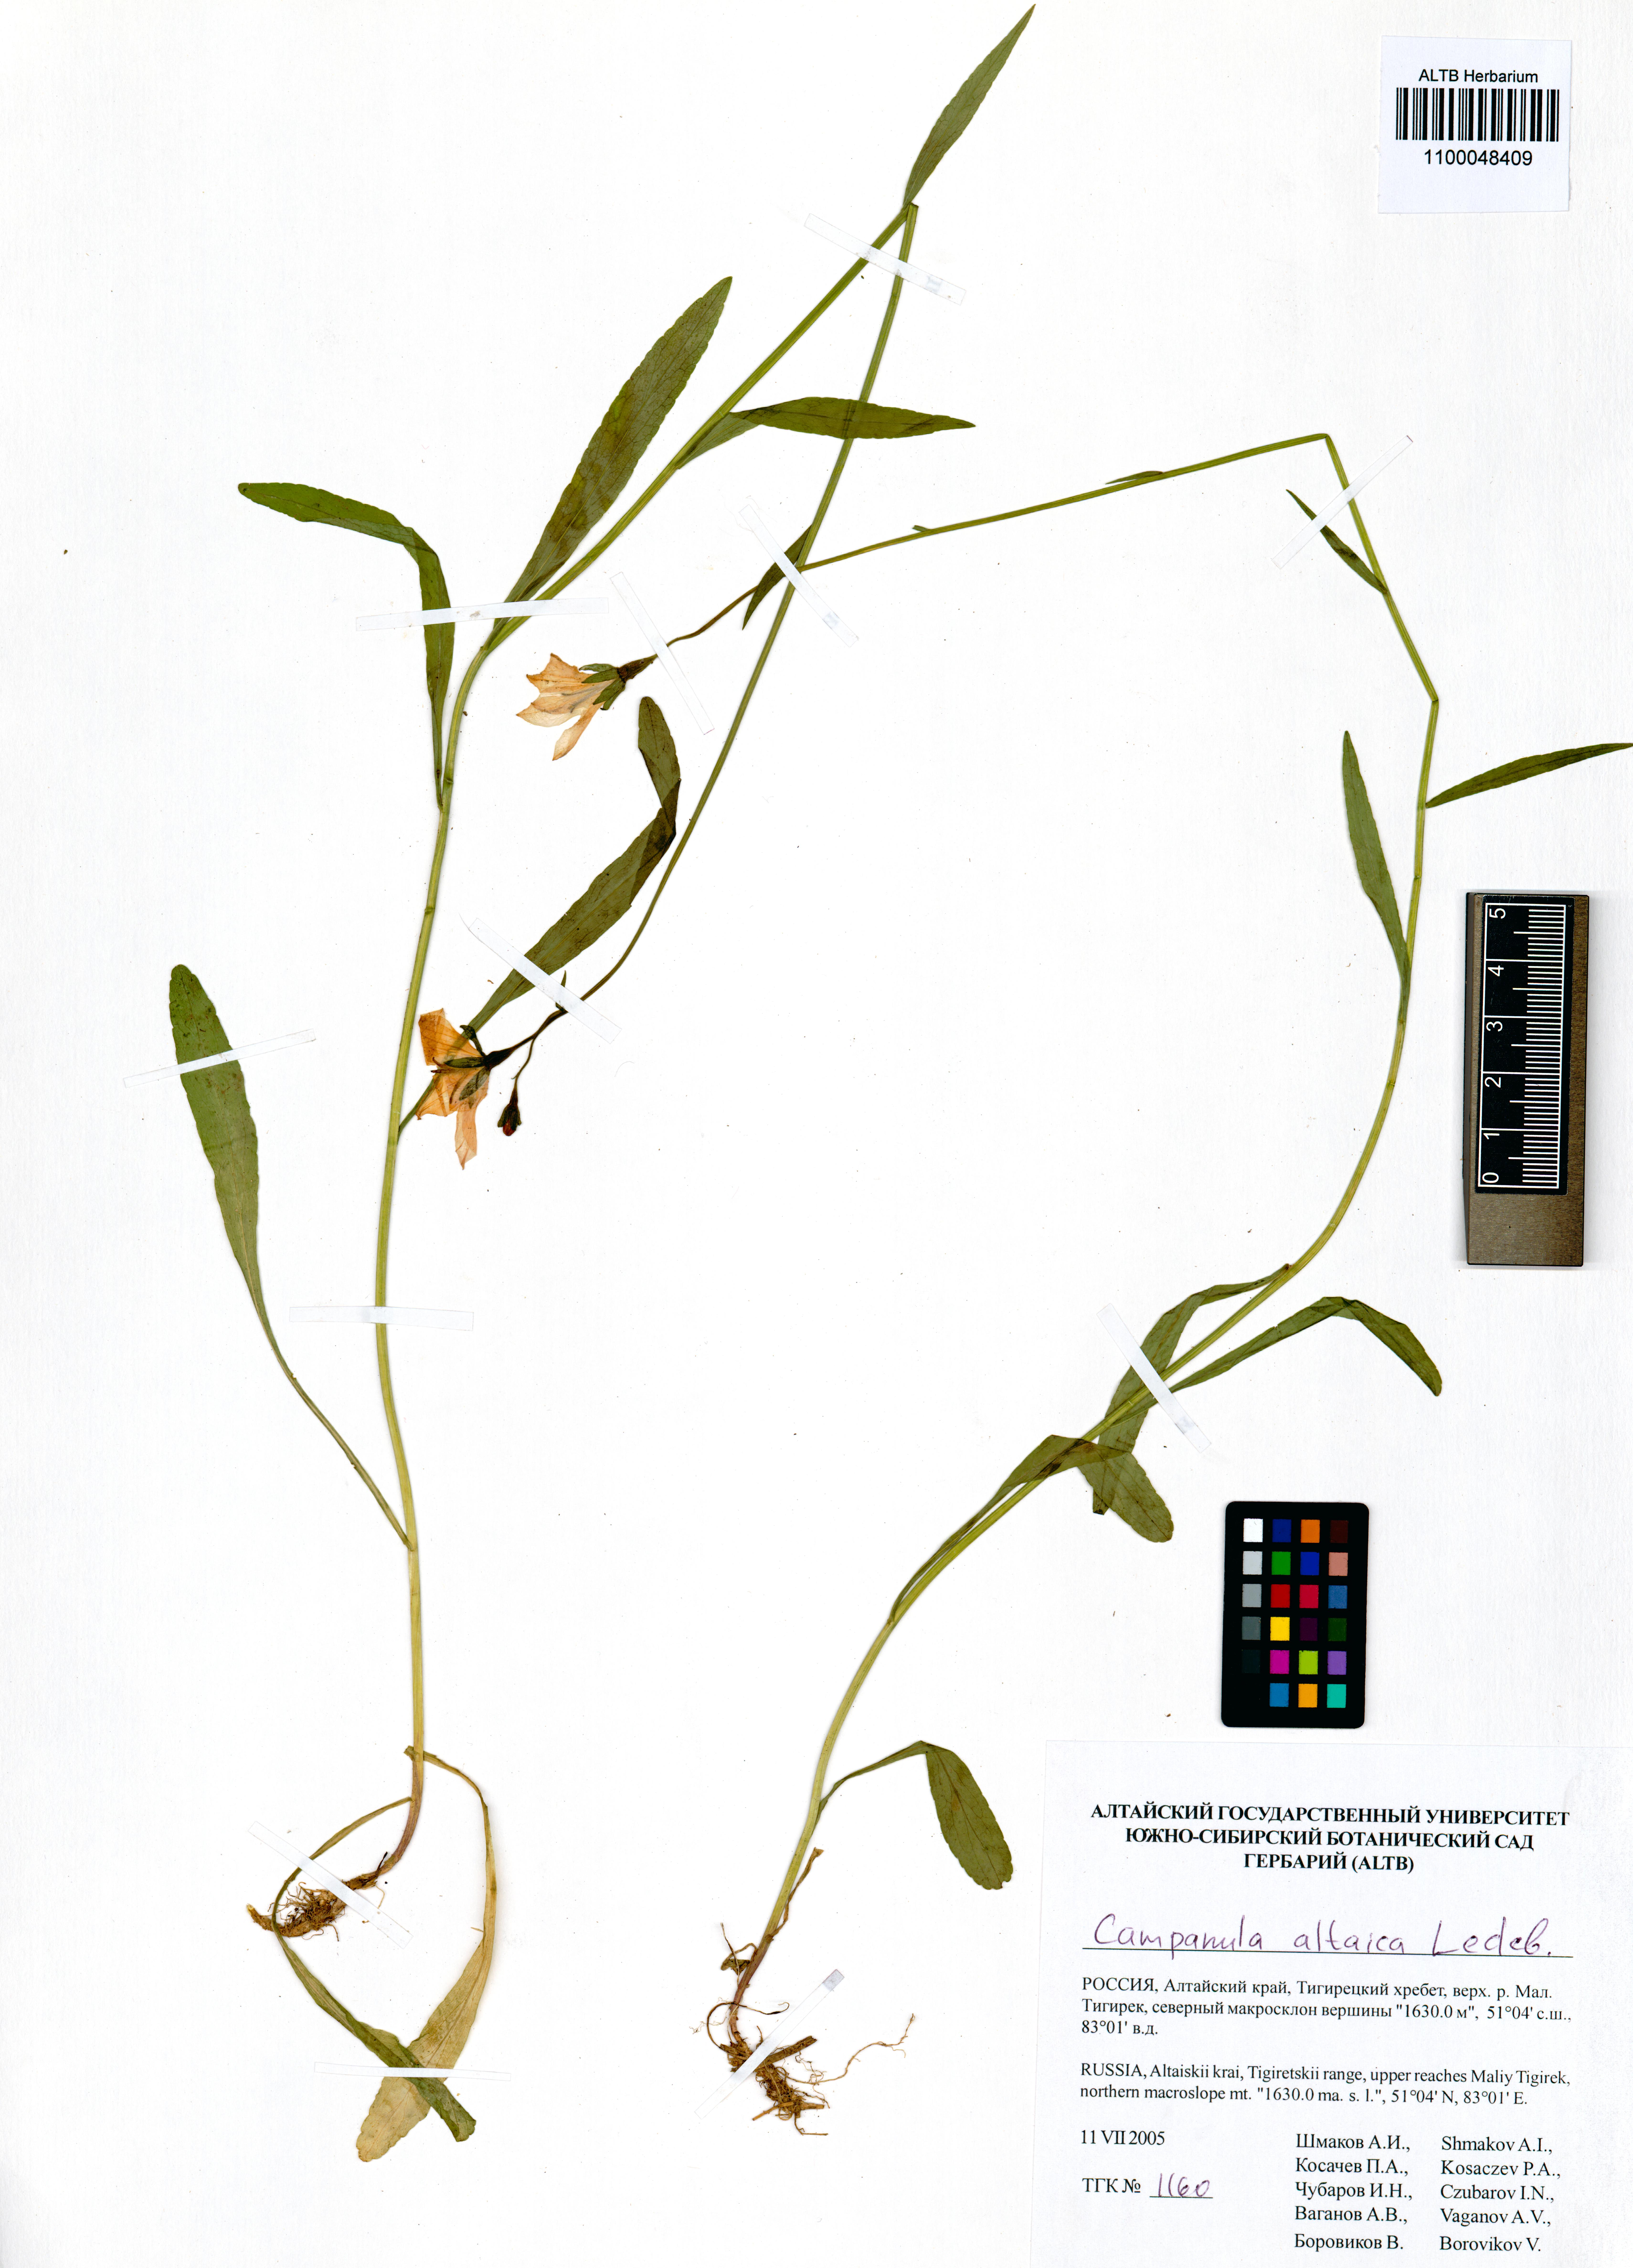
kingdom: Plantae
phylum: Tracheophyta
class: Magnoliopsida
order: Asterales
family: Campanulaceae
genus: Campanula
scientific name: Campanula stevenii
